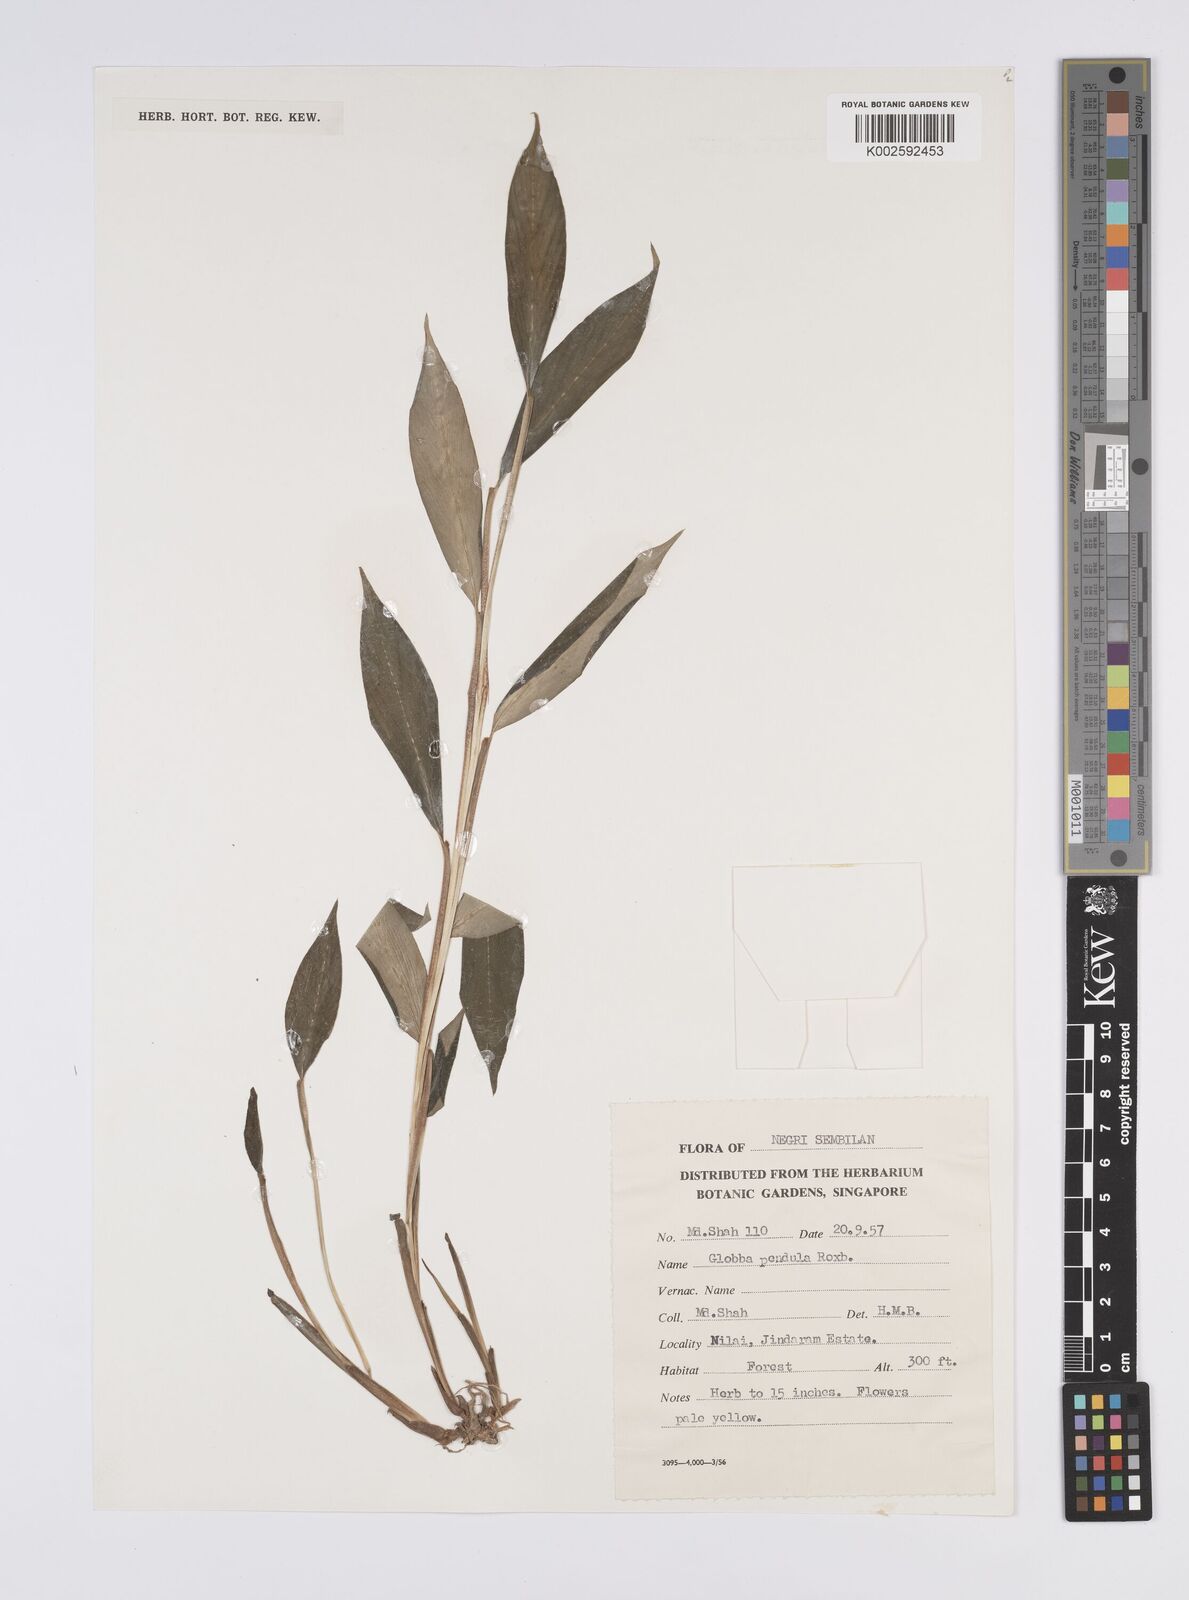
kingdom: Plantae
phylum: Tracheophyta
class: Liliopsida
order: Zingiberales
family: Zingiberaceae
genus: Globba
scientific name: Globba pendula
